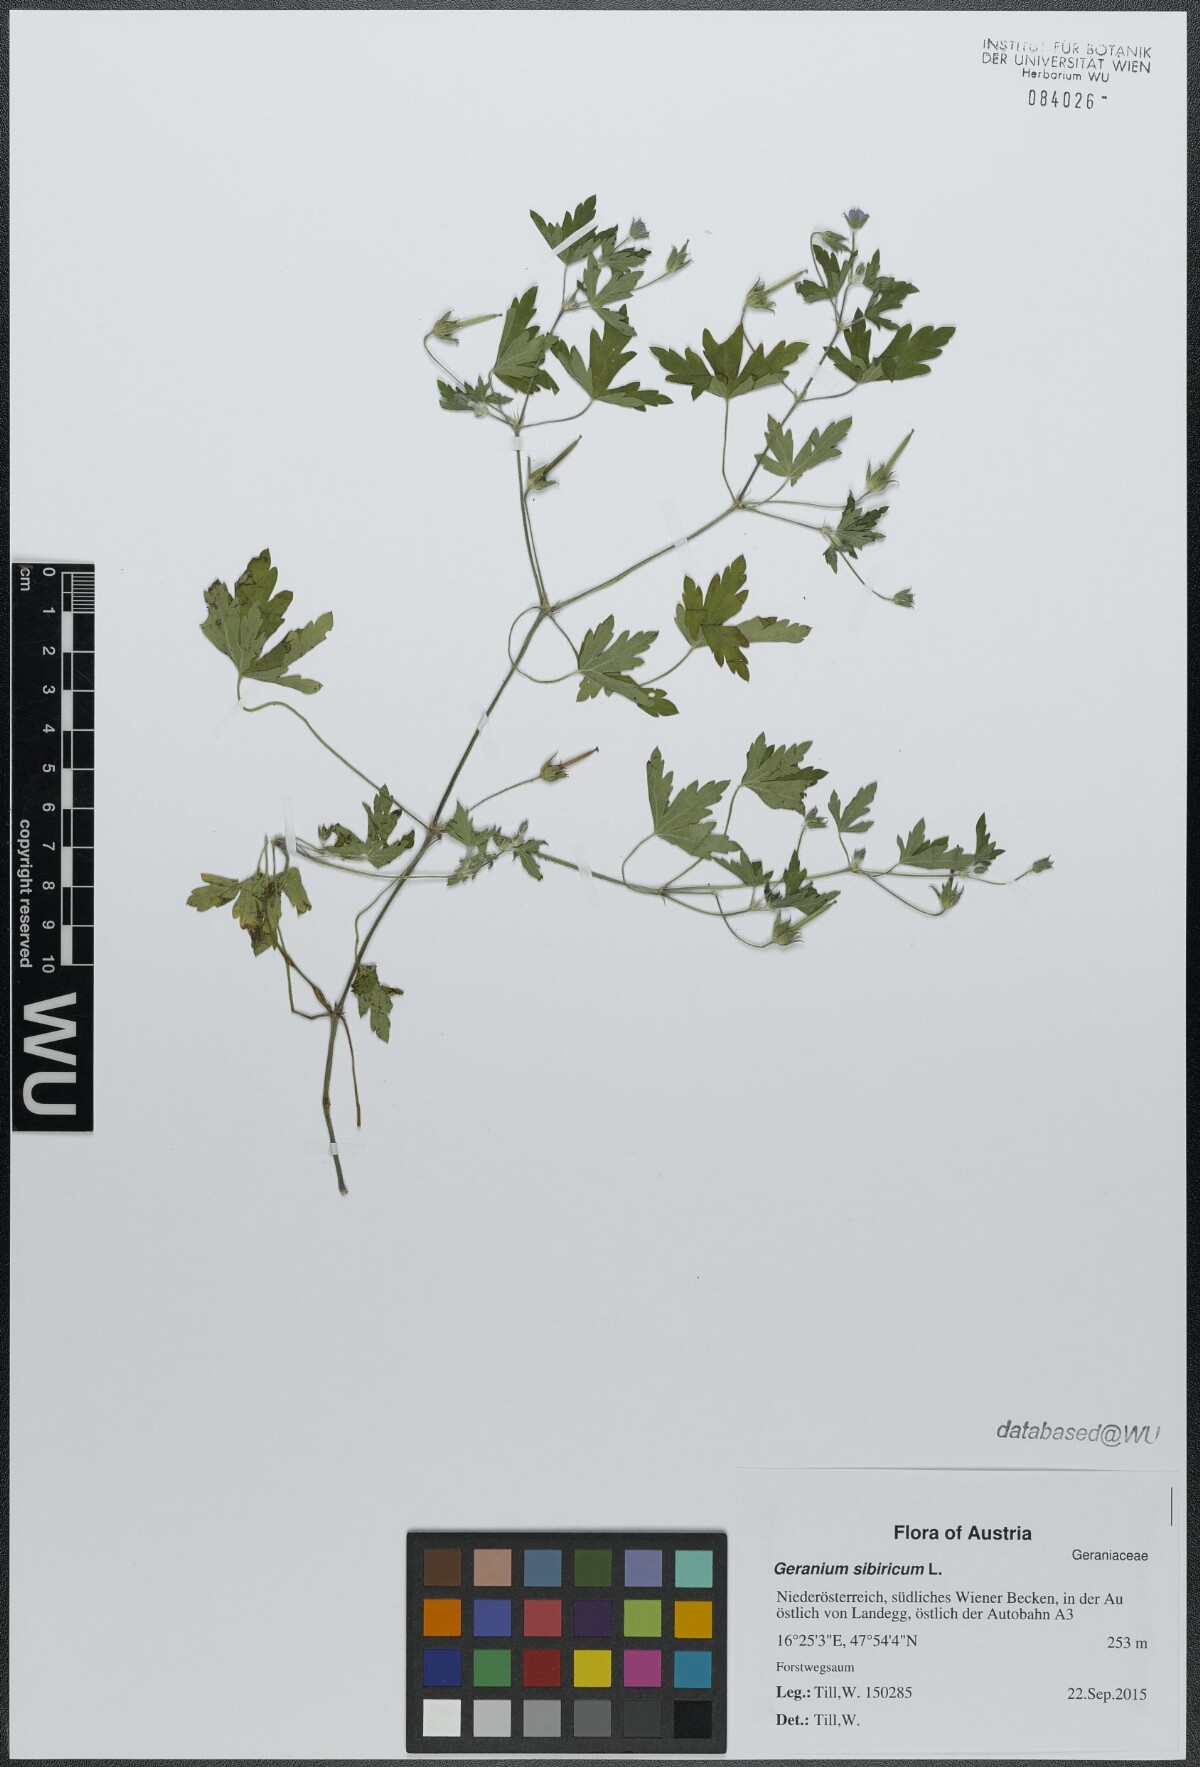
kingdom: Plantae
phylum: Tracheophyta
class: Magnoliopsida
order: Geraniales
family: Geraniaceae
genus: Geranium
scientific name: Geranium sibiricum
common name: Siberian crane's-bill
